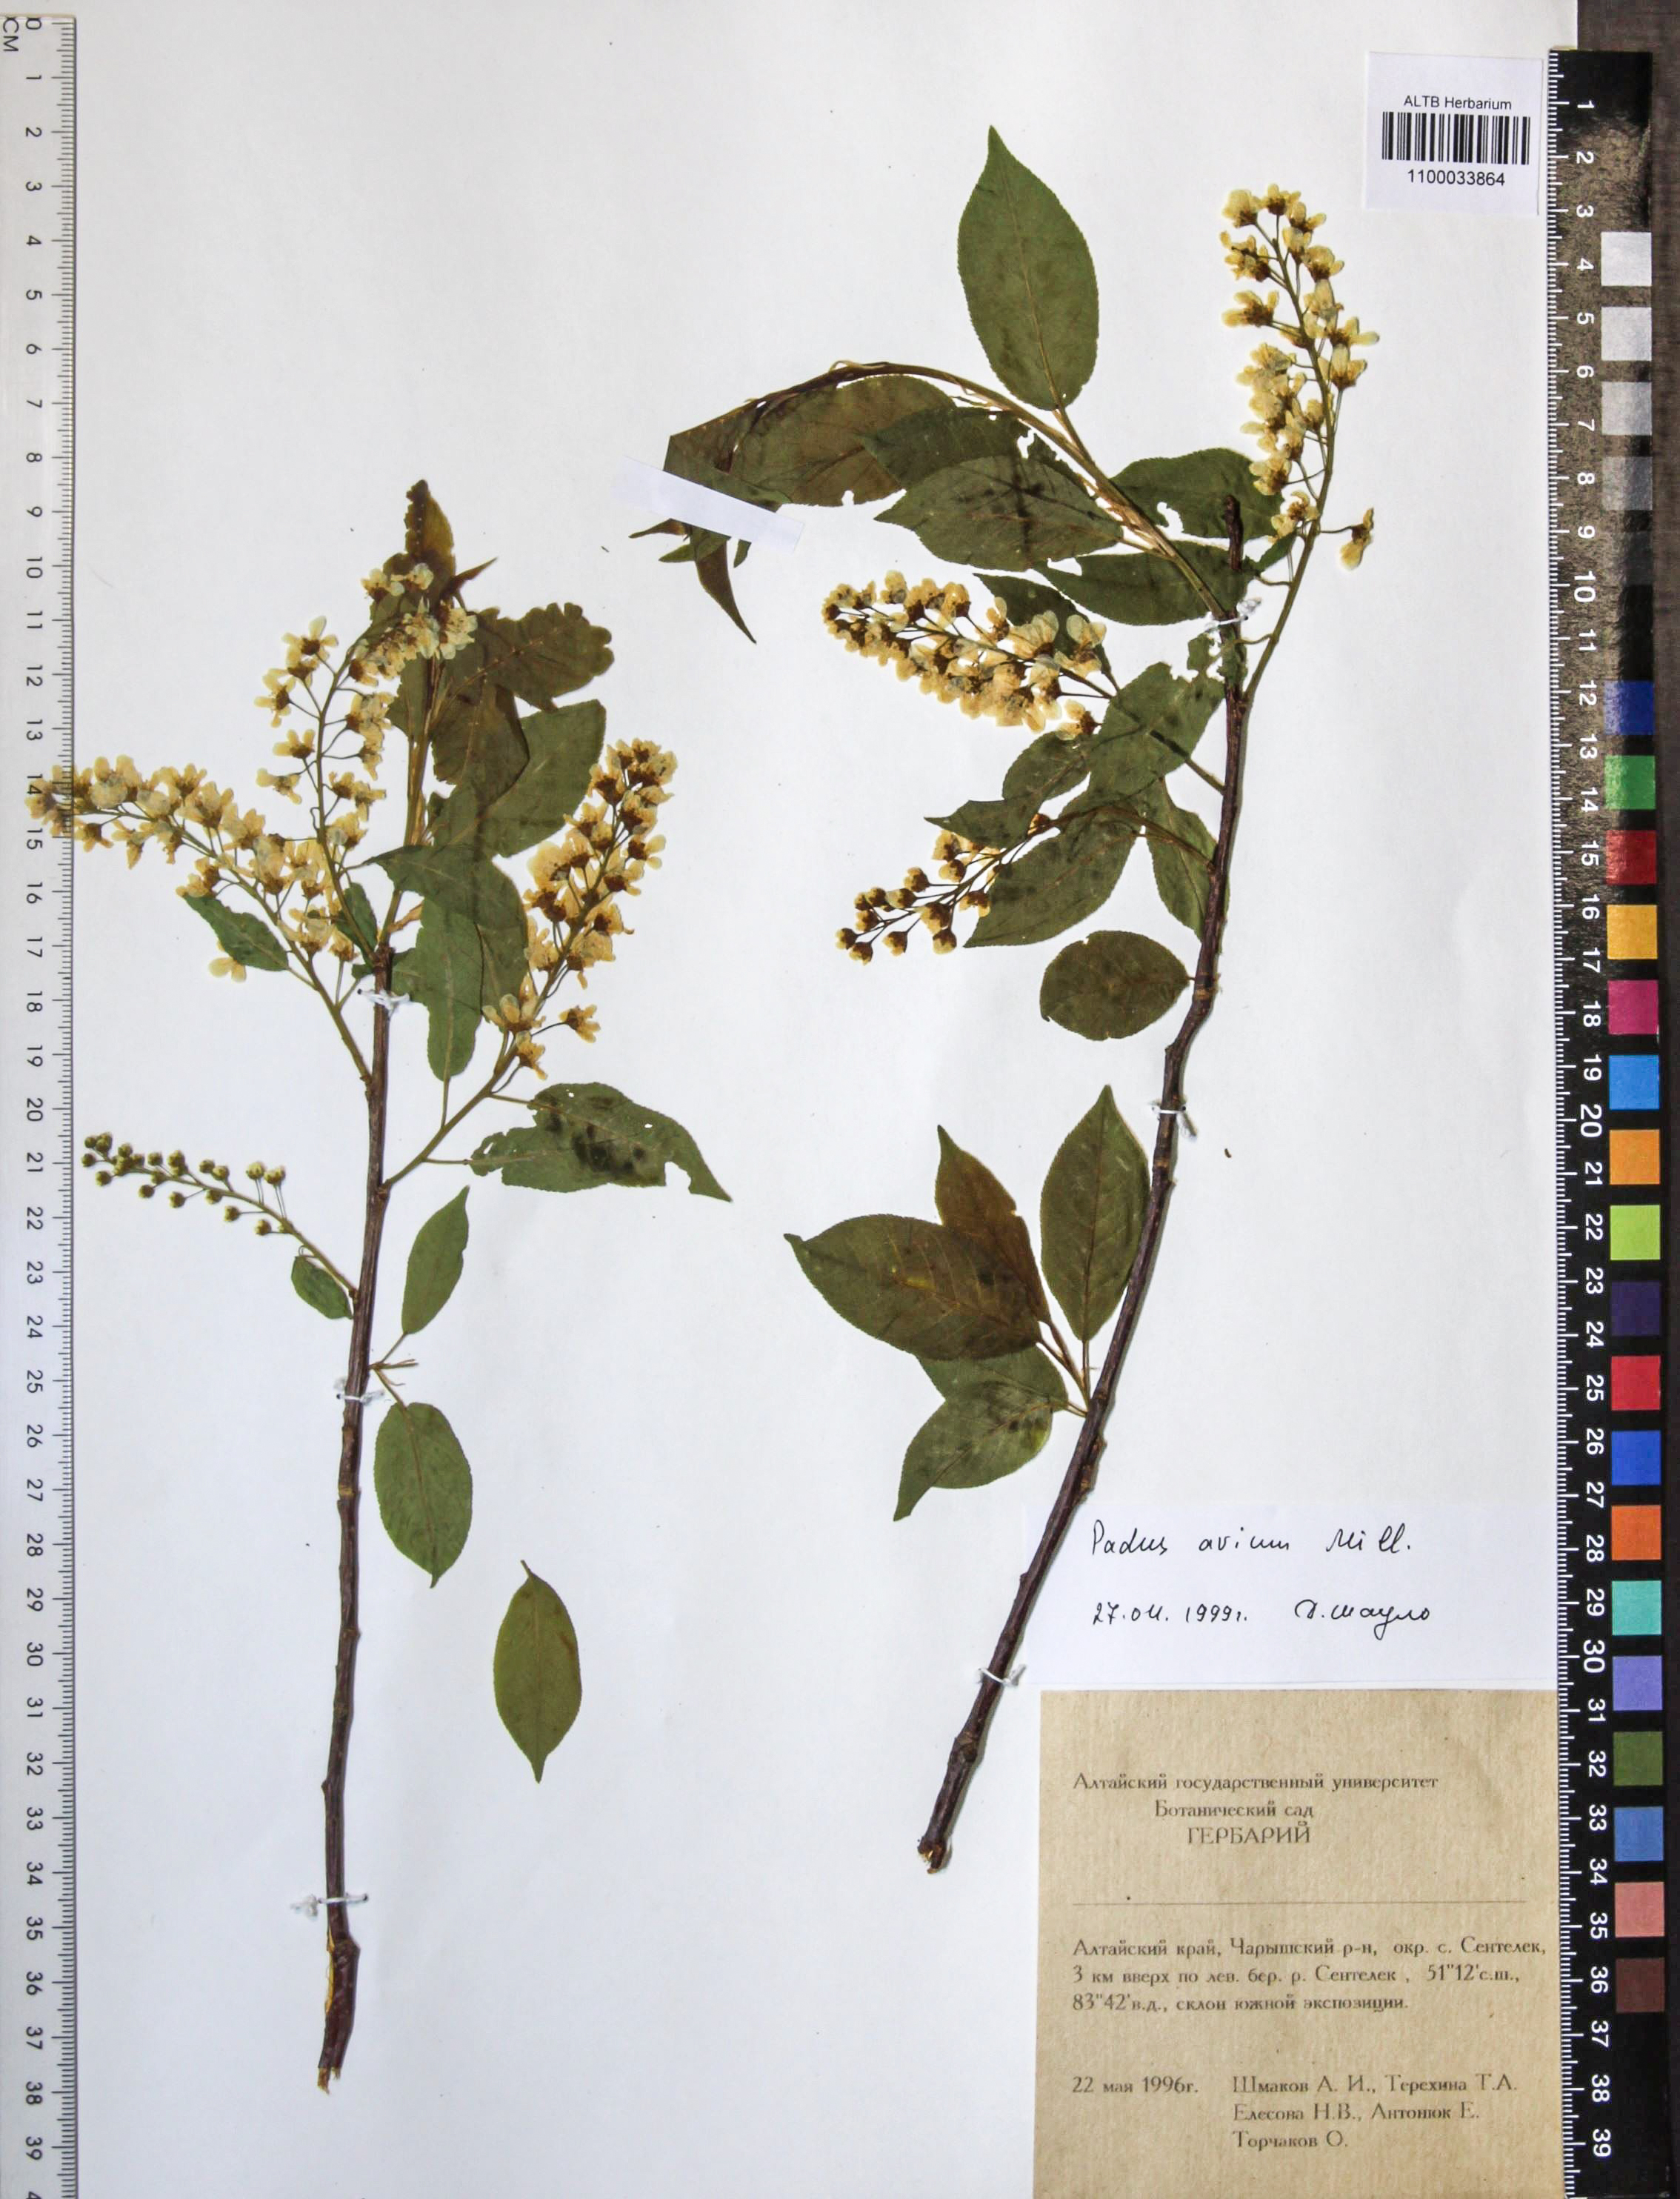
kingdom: Plantae
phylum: Tracheophyta
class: Magnoliopsida
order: Rosales
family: Rosaceae
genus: Prunus
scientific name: Prunus padus
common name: Bird cherry
